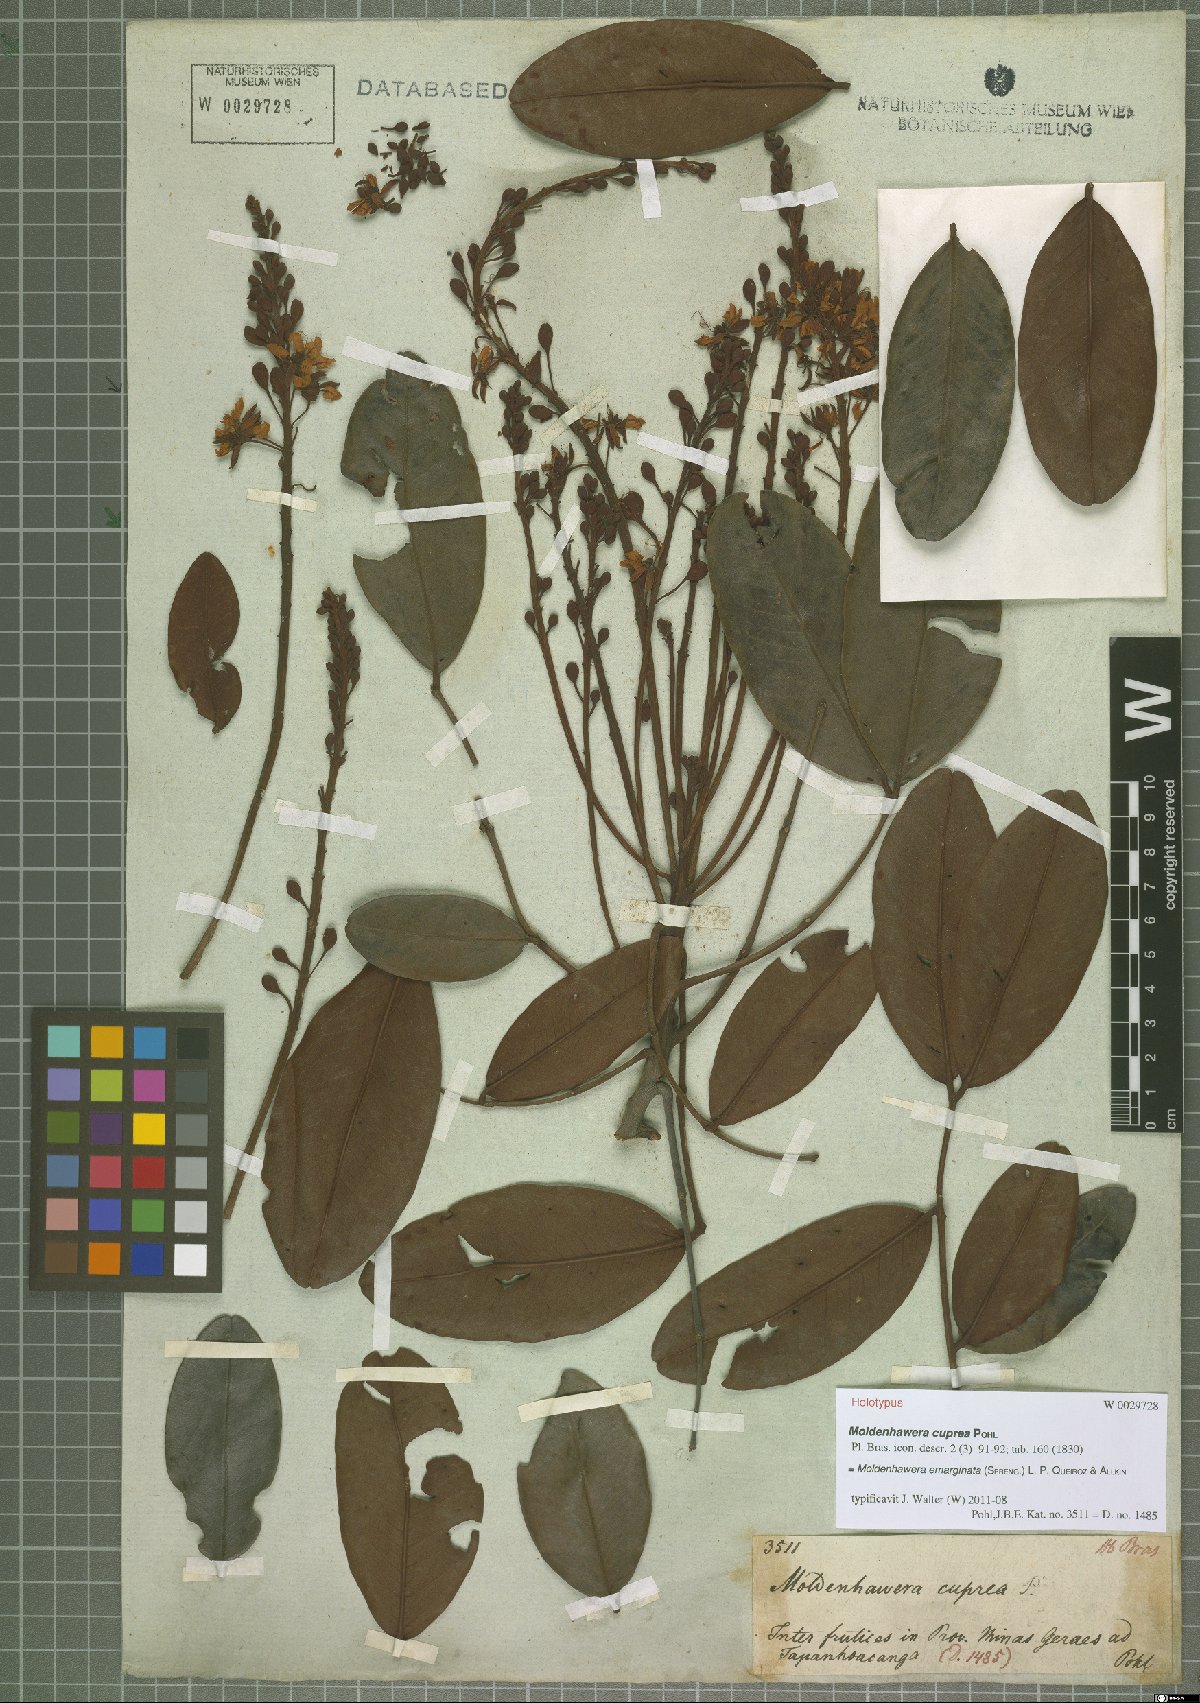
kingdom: Plantae
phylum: Tracheophyta
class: Magnoliopsida
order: Fabales
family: Fabaceae
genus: Moldenhawera
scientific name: Moldenhawera emarginata
